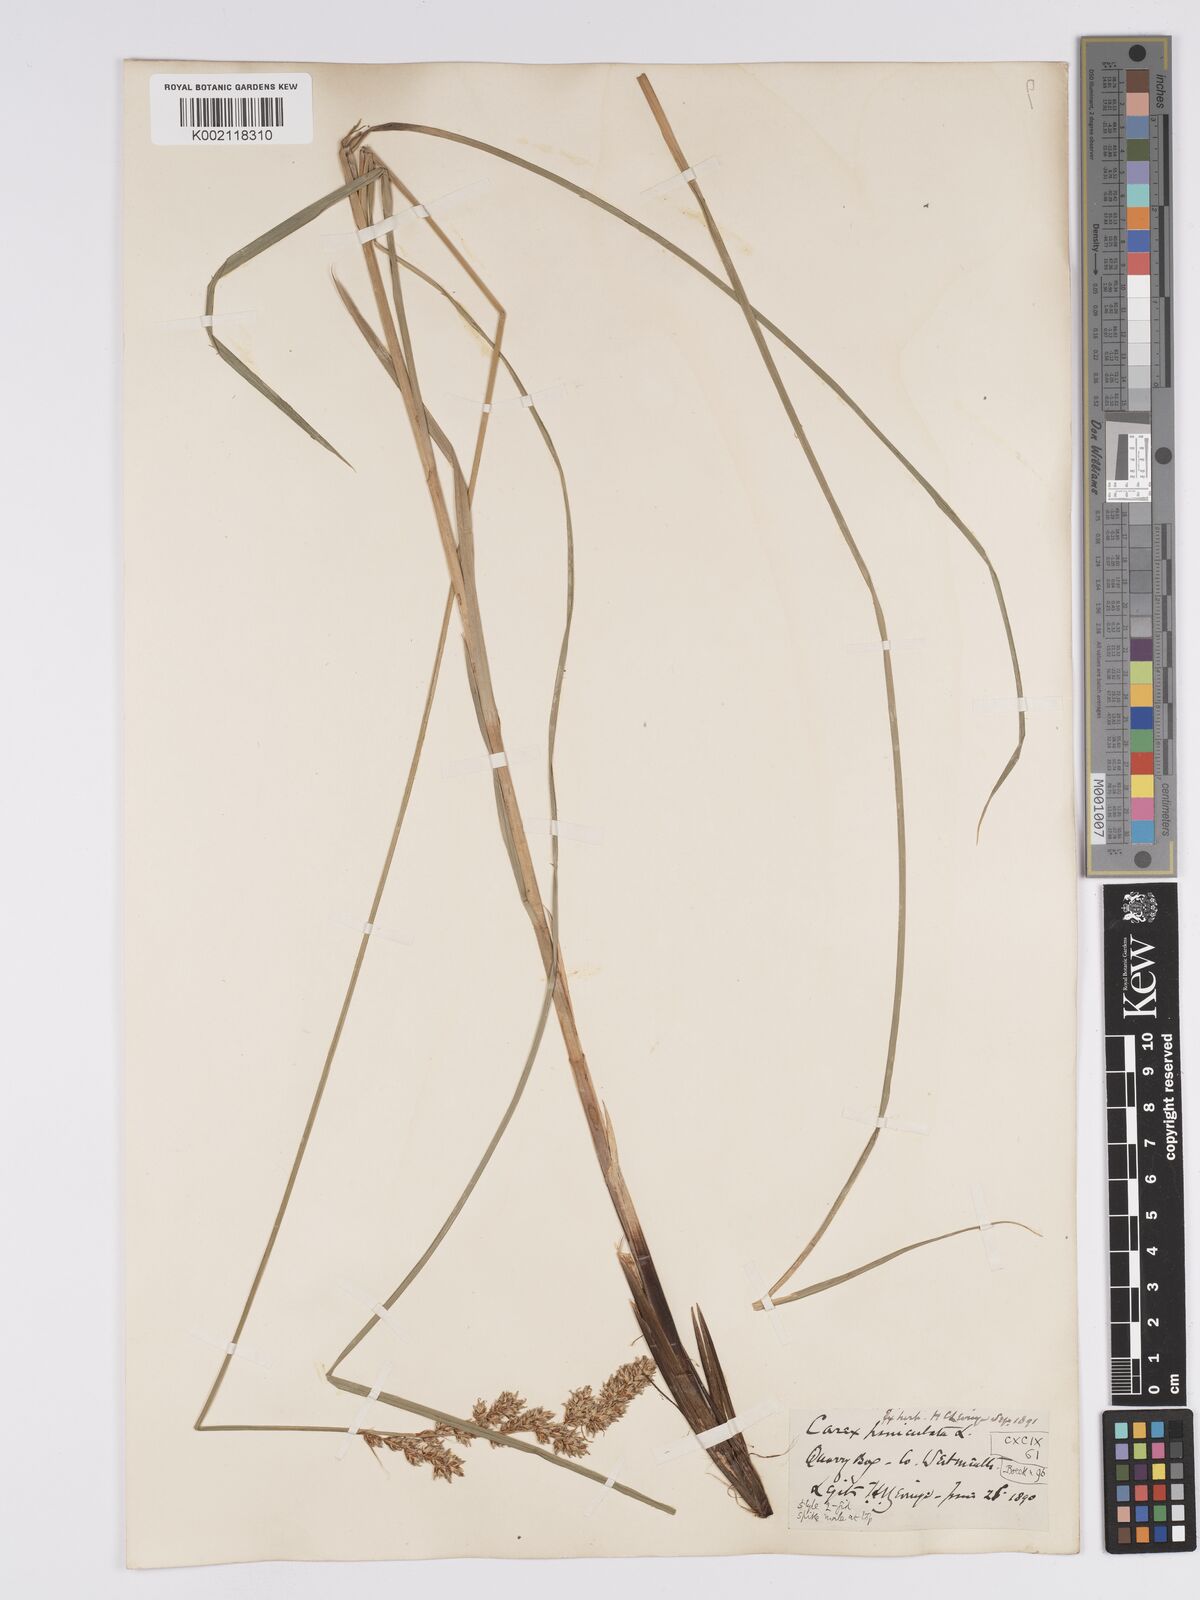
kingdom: Plantae
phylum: Tracheophyta
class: Liliopsida
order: Poales
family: Cyperaceae
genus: Carex
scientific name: Carex paniculata
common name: Greater tussock-sedge
